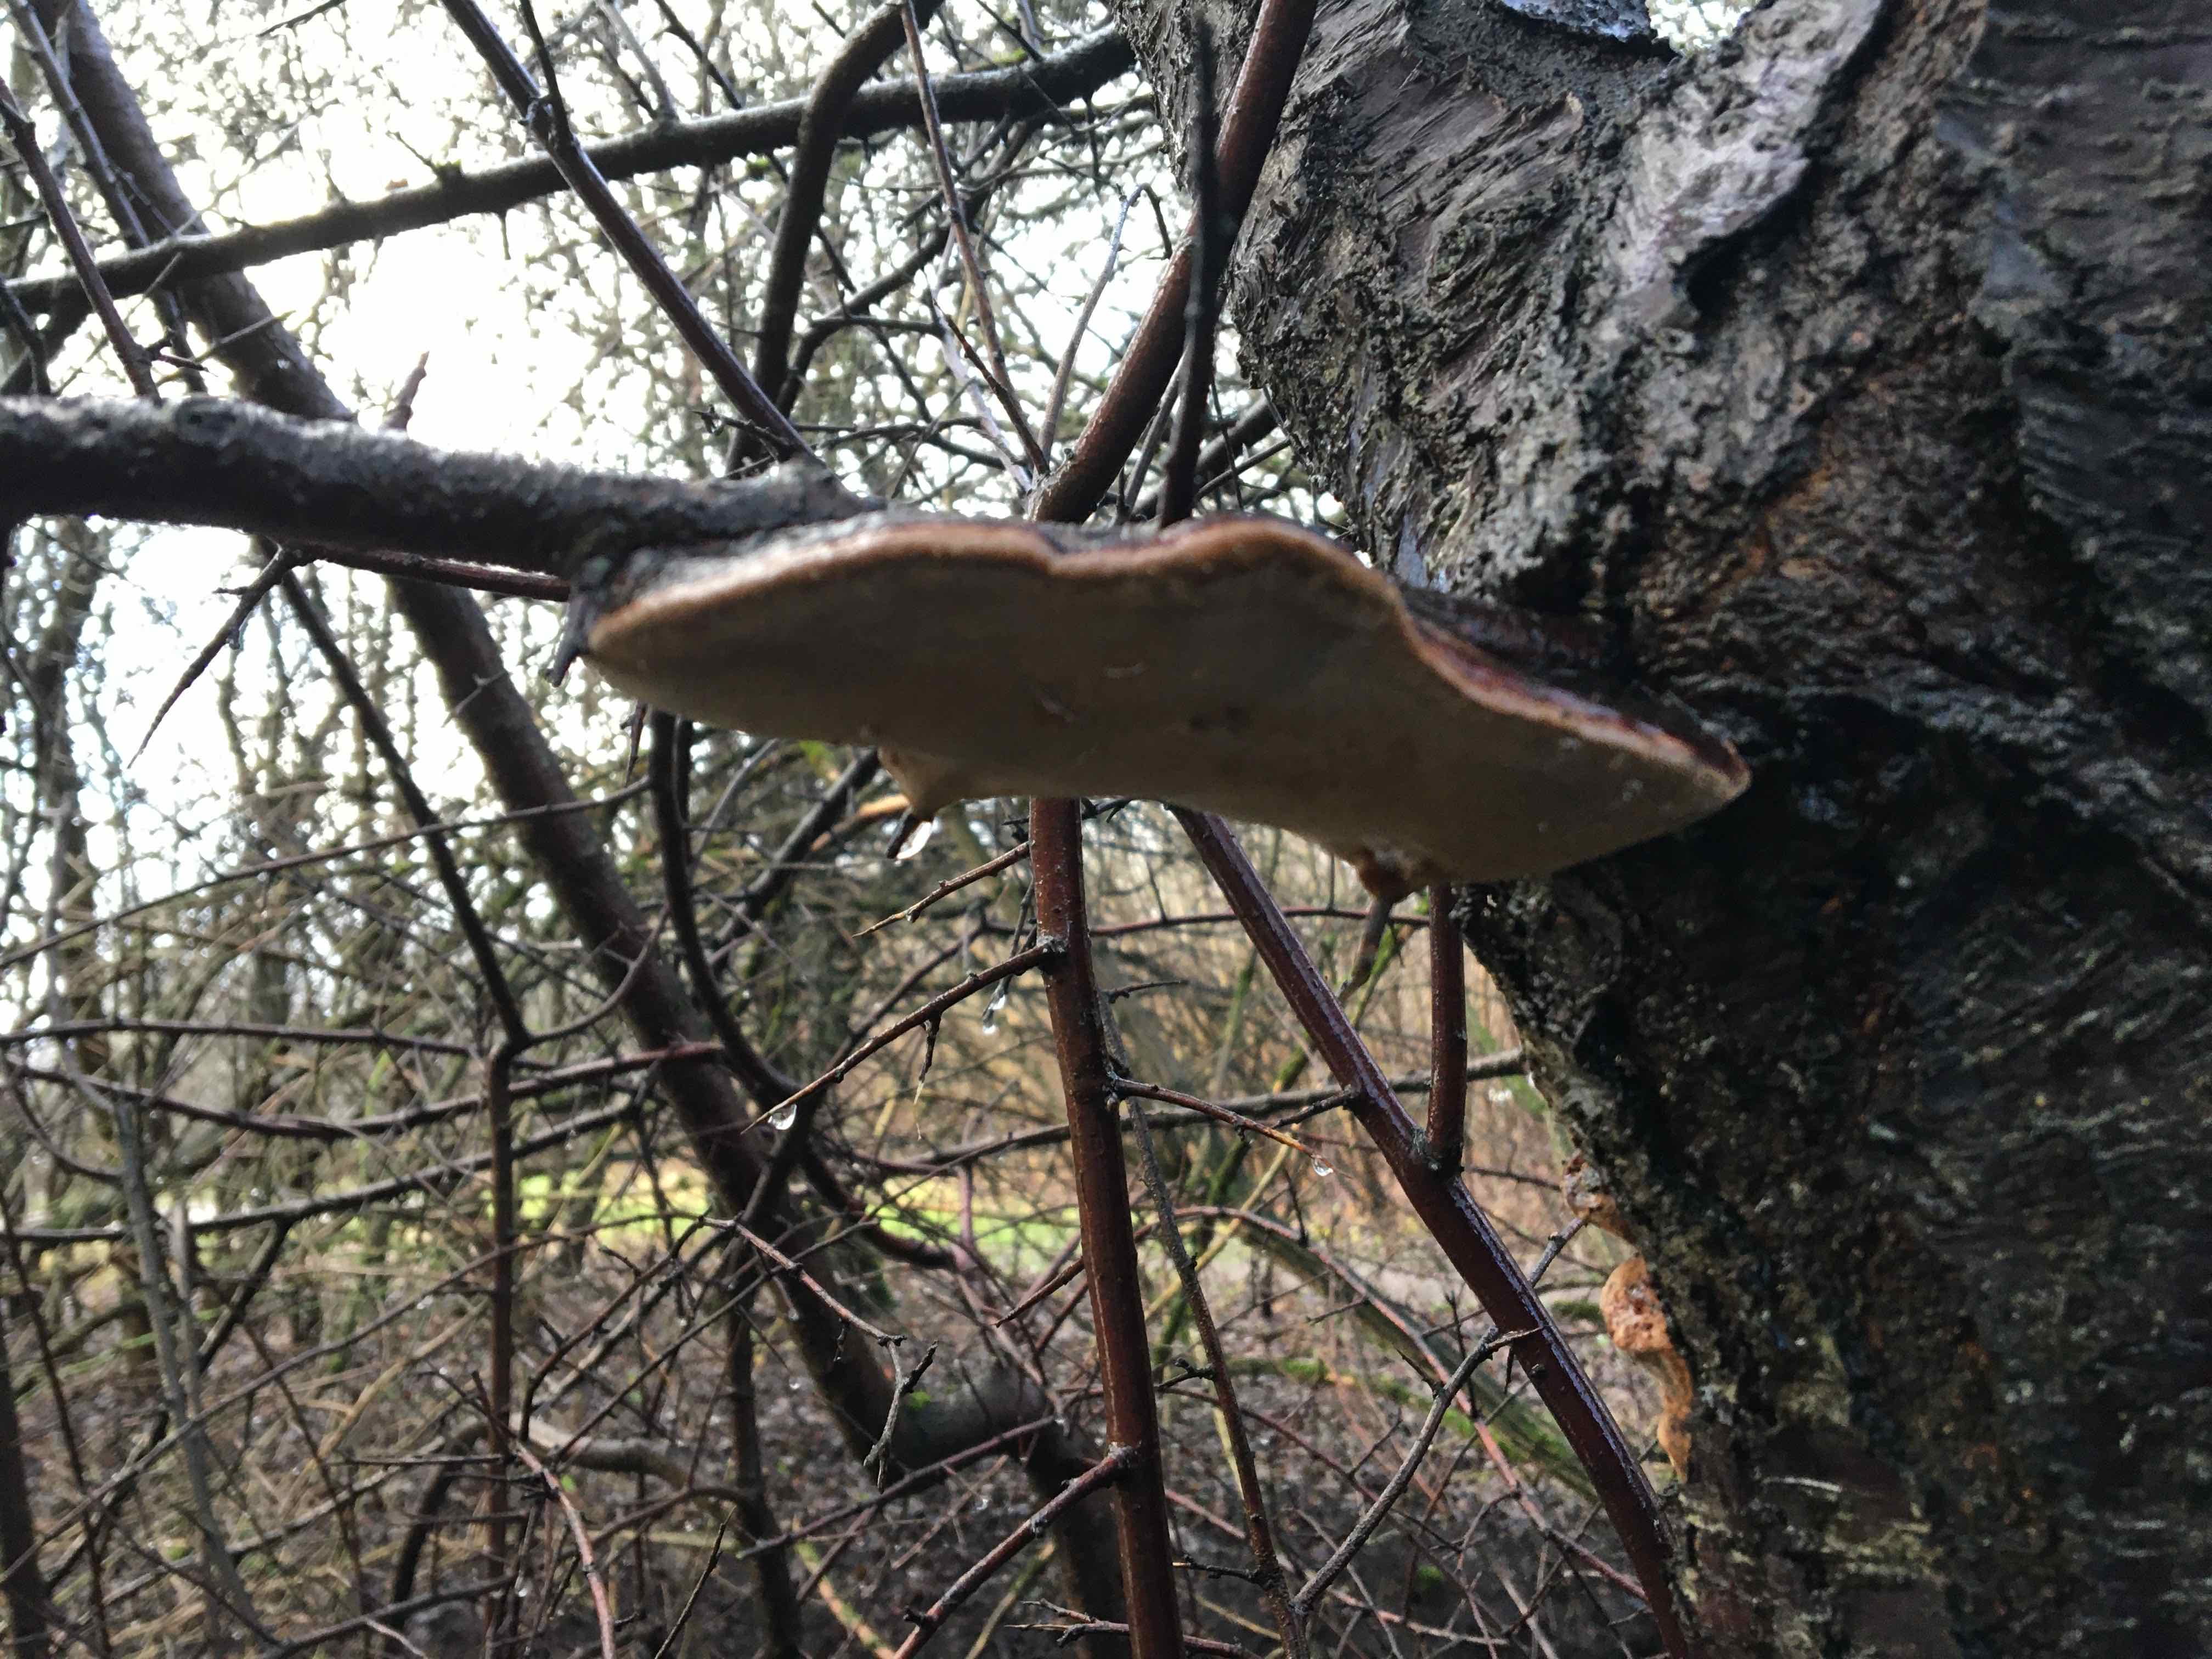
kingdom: Fungi
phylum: Basidiomycota
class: Agaricomycetes
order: Hymenochaetales
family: Hymenochaetaceae
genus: Phellinus
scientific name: Phellinus pomaceus
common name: blomme-ildporesvamp
